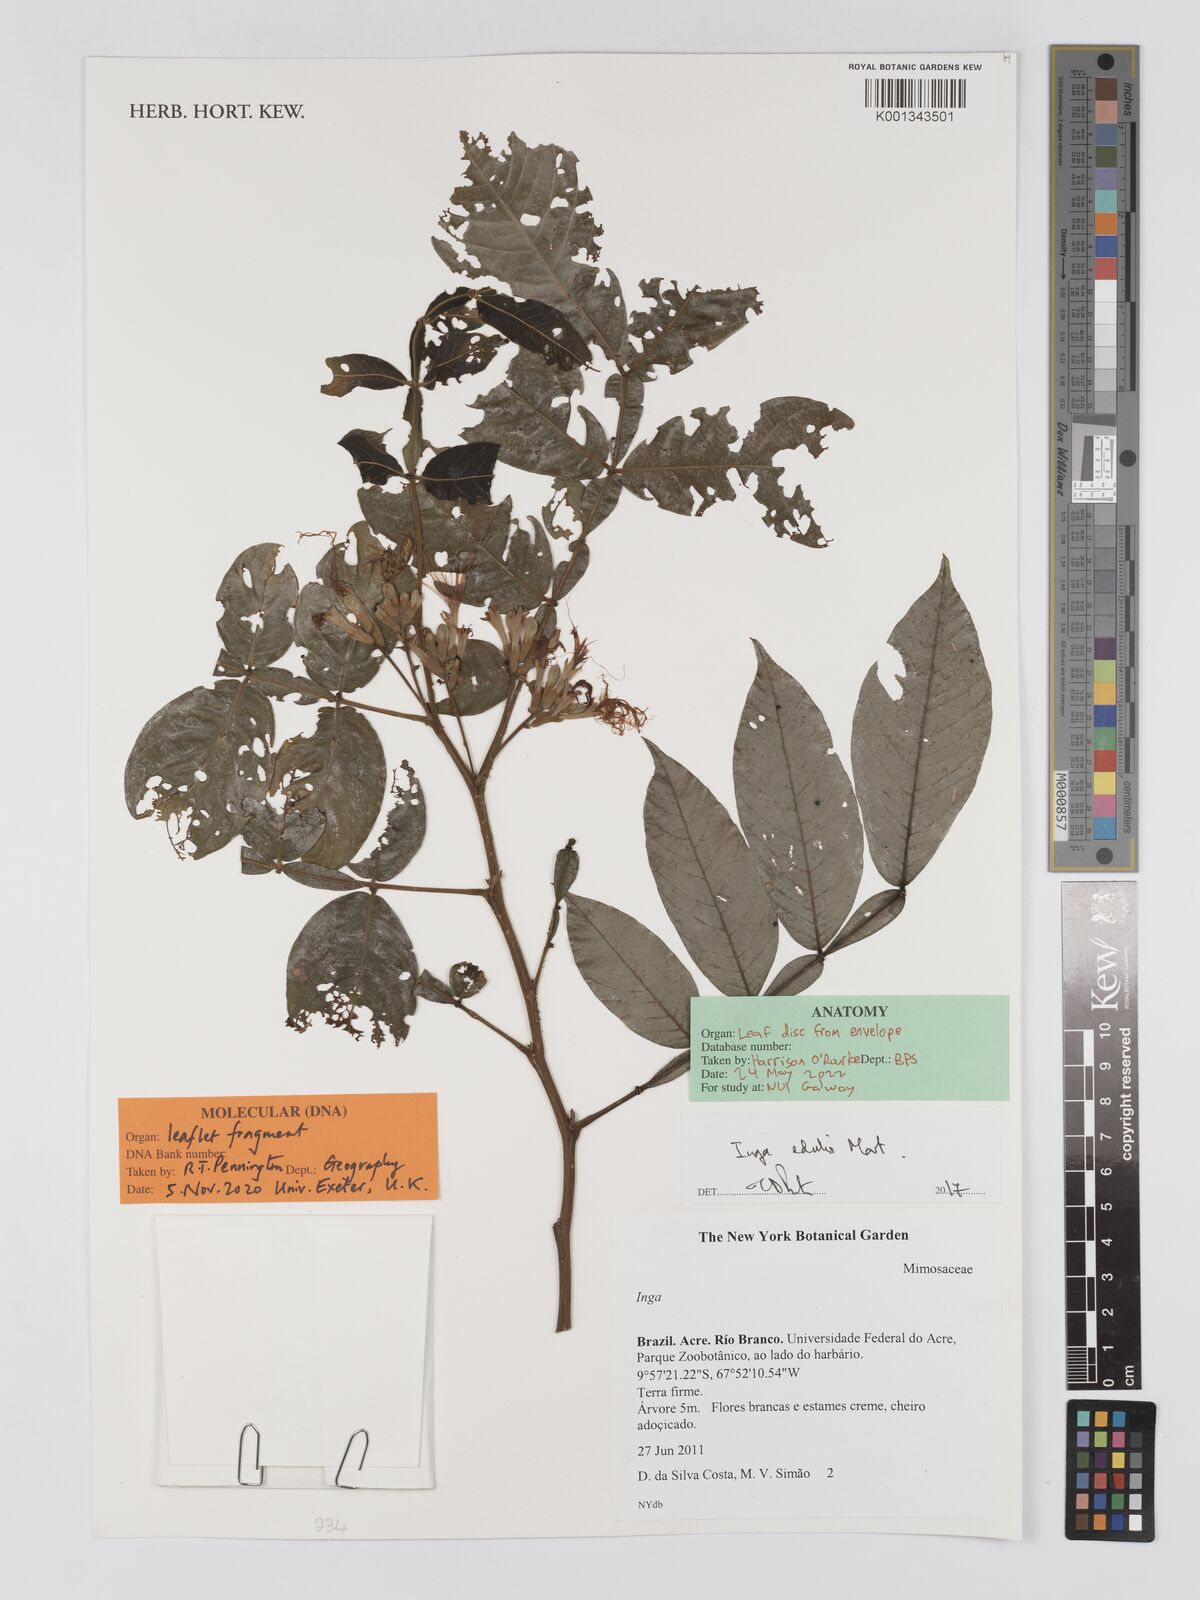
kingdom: Plantae
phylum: Tracheophyta
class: Magnoliopsida
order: Fabales
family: Fabaceae
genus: Inga
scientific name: Inga edulis
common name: Ice cream bean
